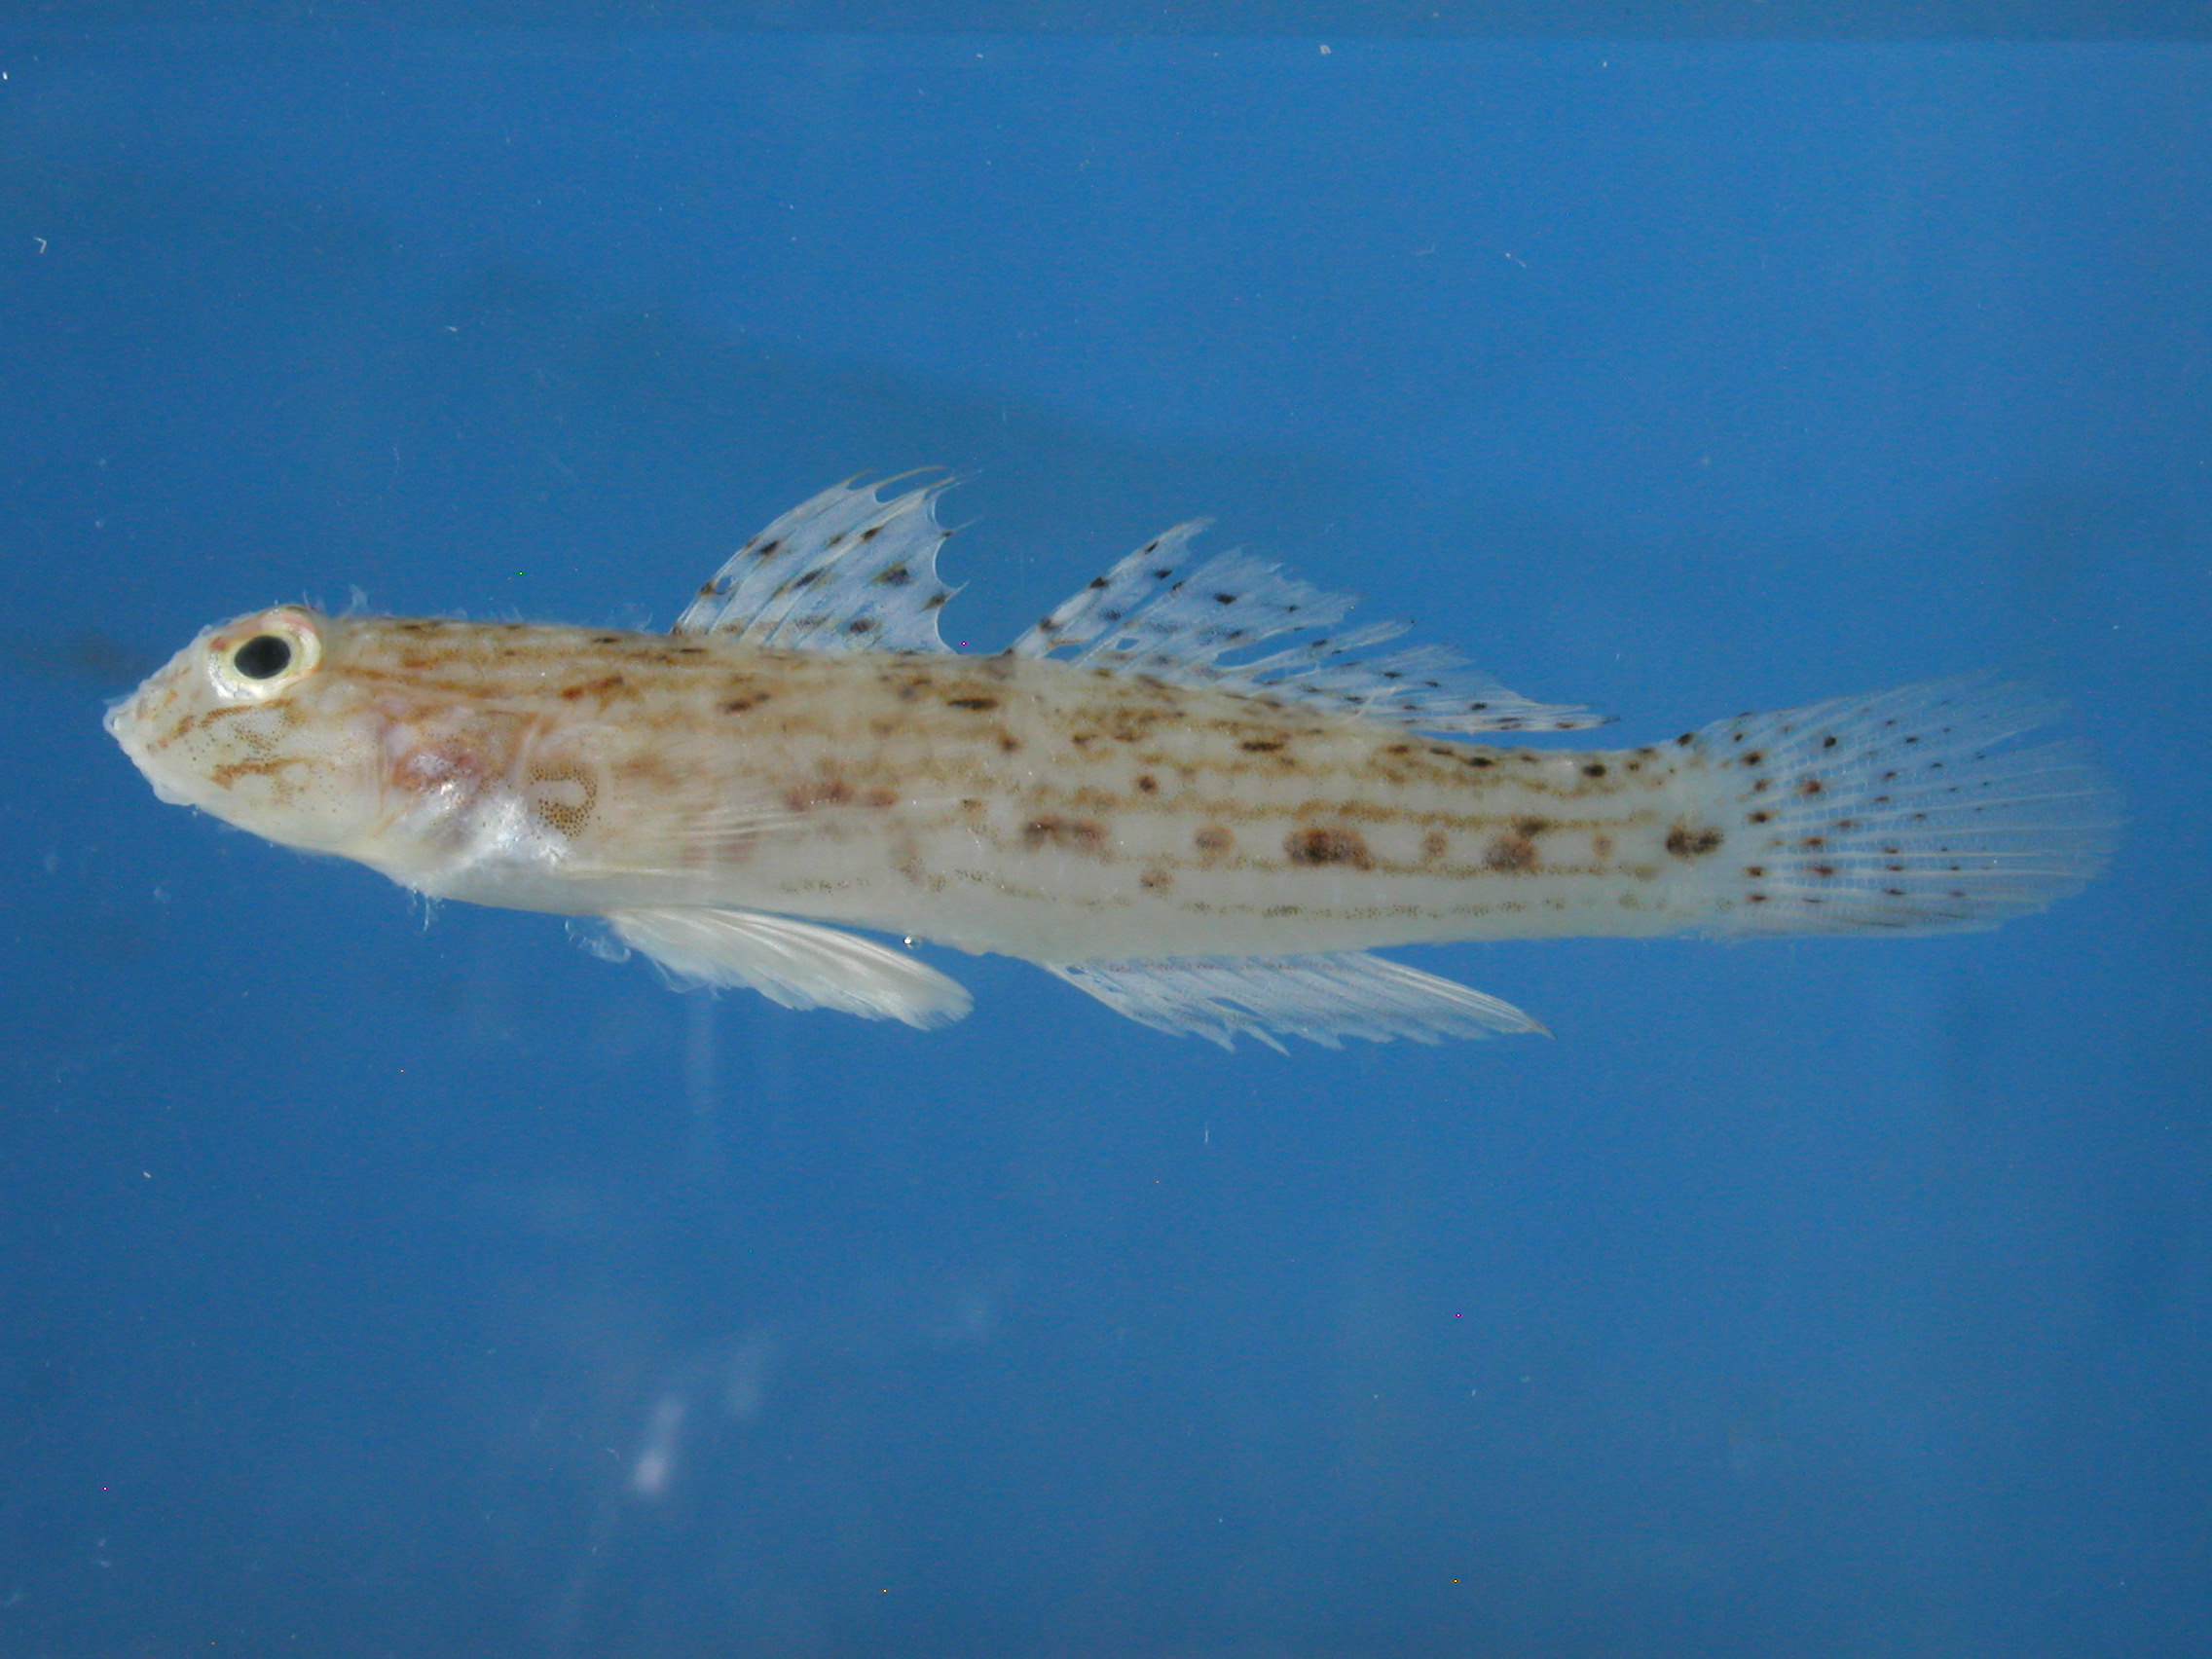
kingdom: Animalia
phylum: Chordata
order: Perciformes
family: Gobiidae
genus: Istigobius
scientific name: Istigobius decoratus
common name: Decorated goby
